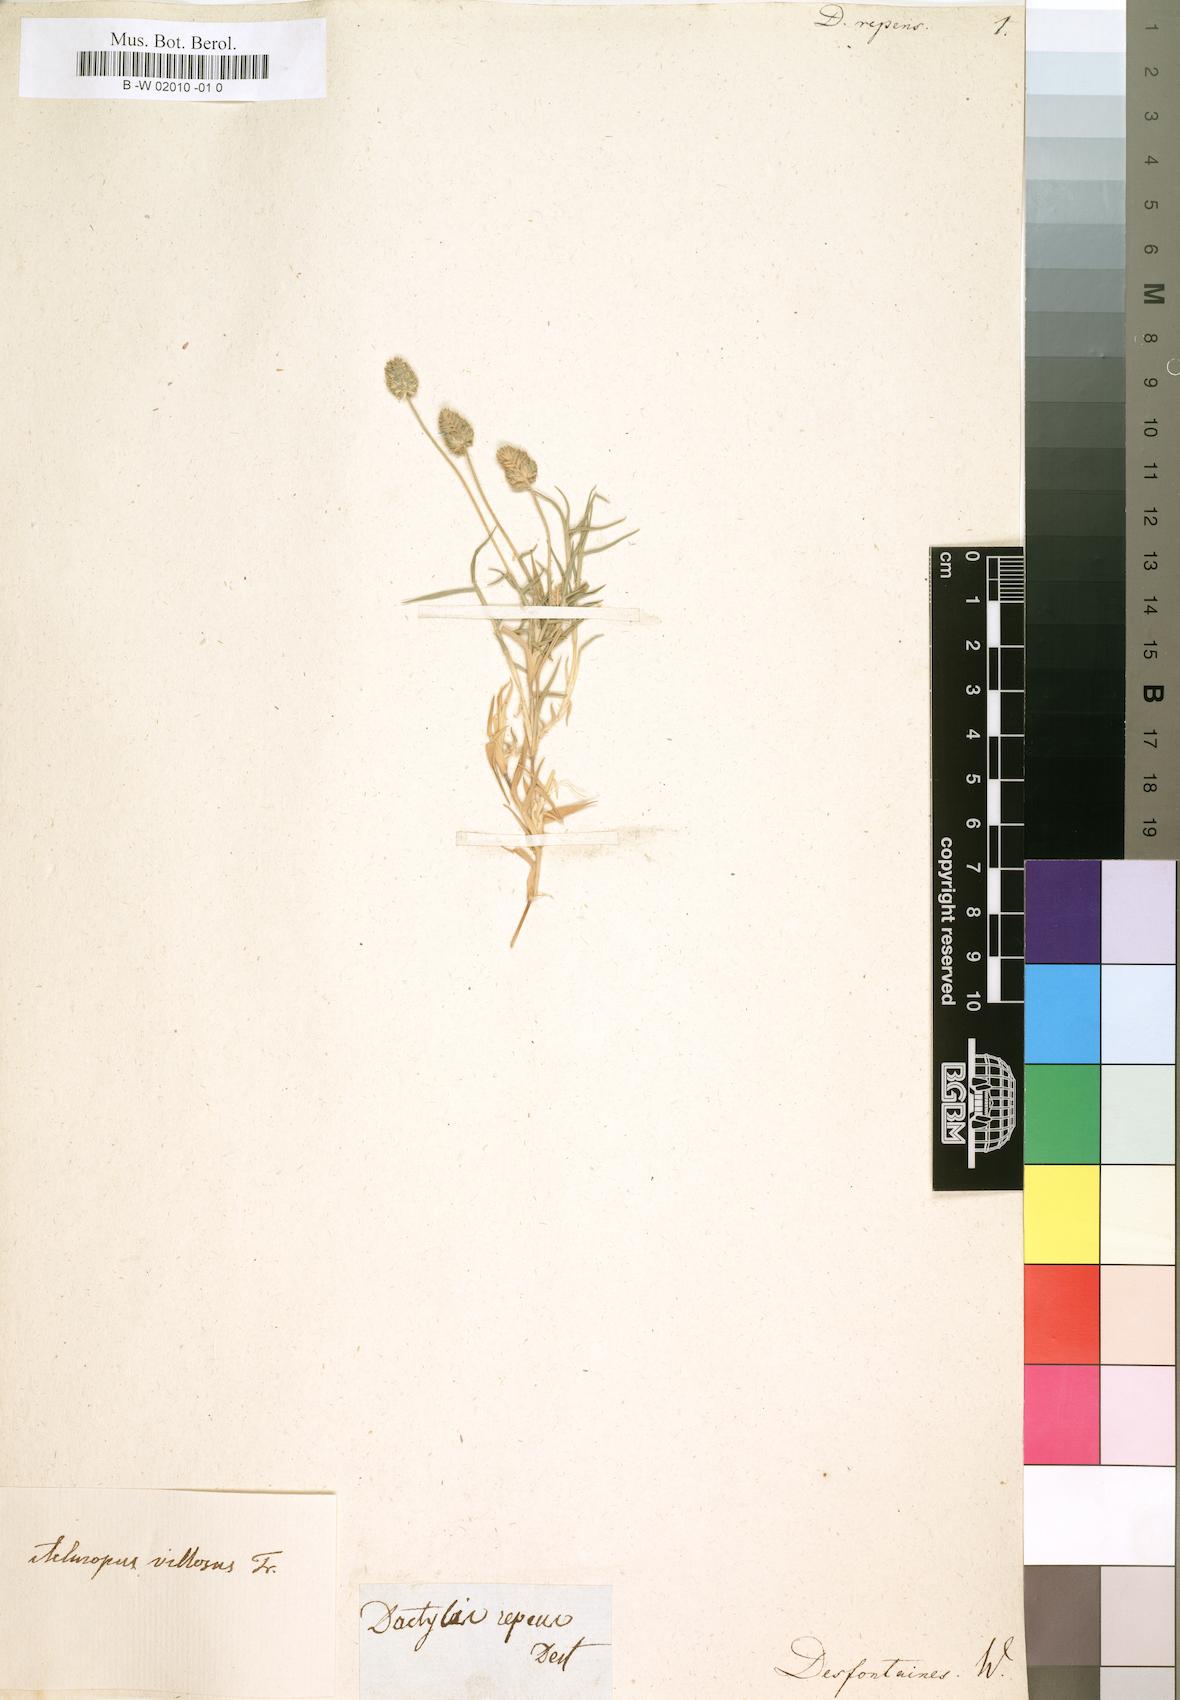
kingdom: Plantae
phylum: Tracheophyta
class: Liliopsida
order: Poales
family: Poaceae
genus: Aeluropus
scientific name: Aeluropus lagopoides
